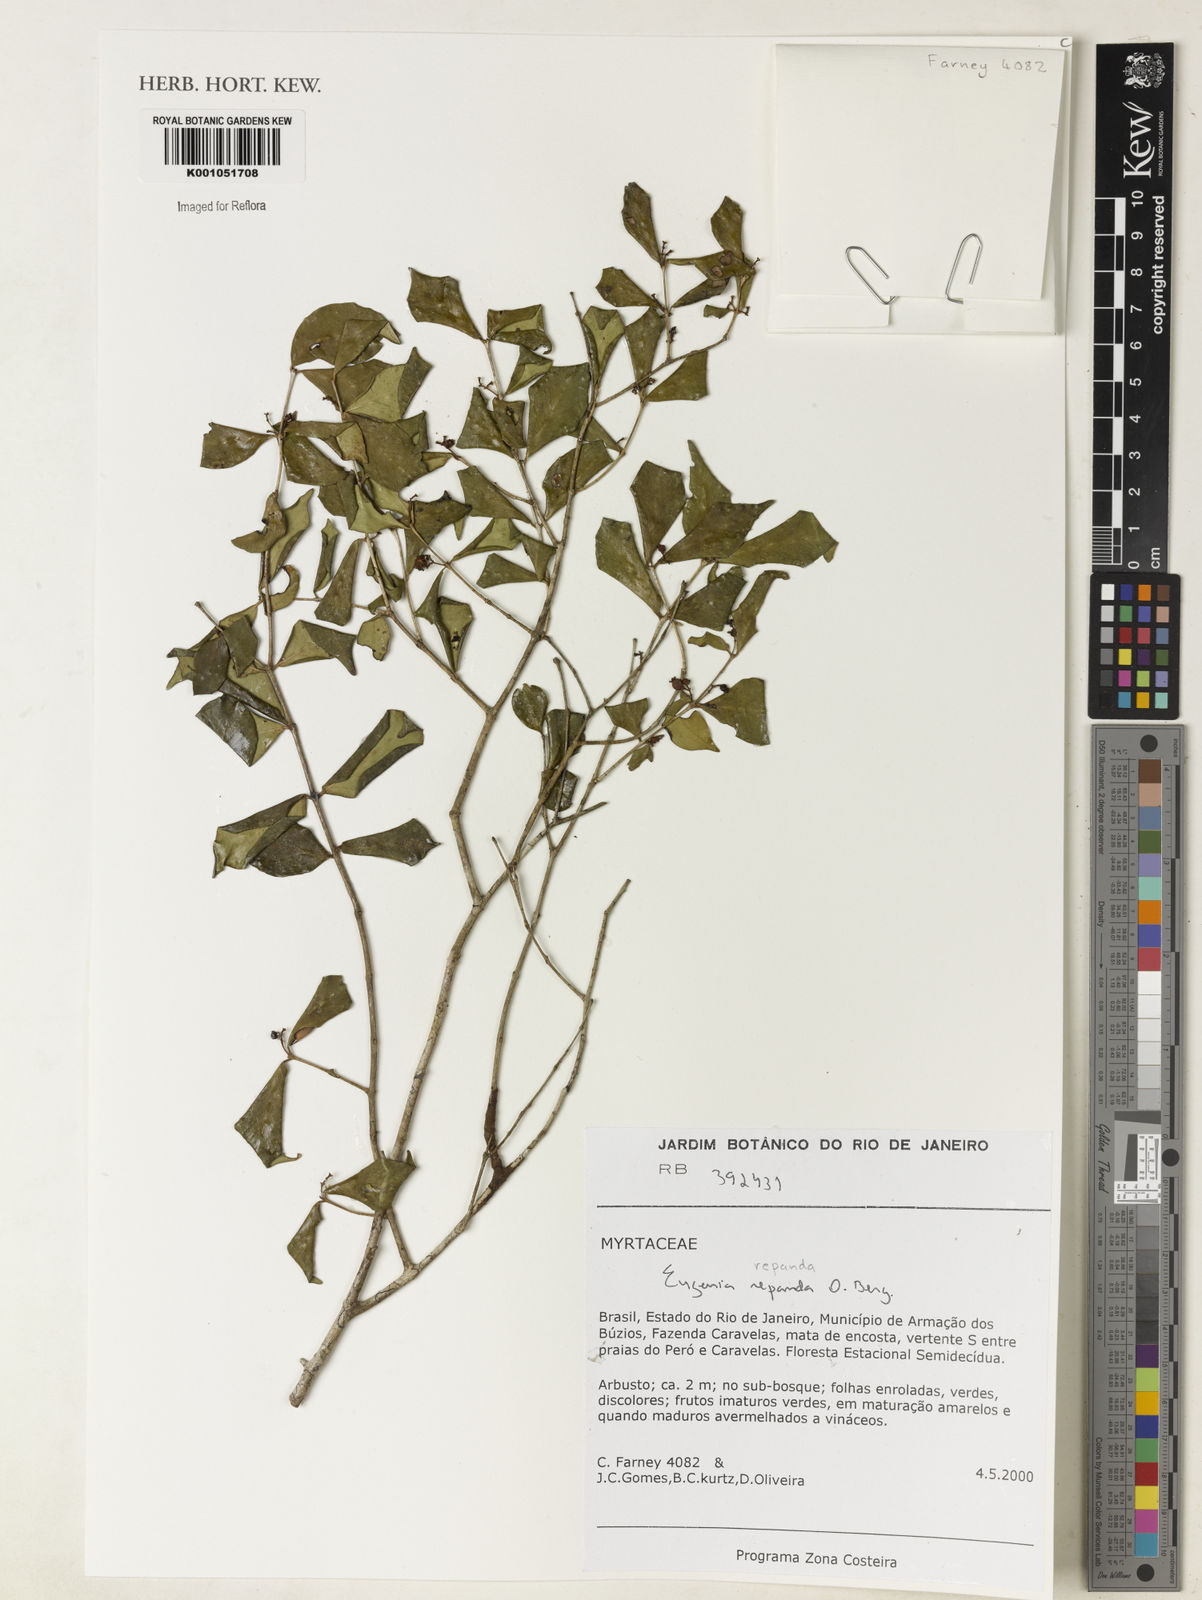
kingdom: Plantae
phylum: Tracheophyta
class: Magnoliopsida
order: Myrtales
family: Myrtaceae
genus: Eugenia
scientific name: Eugenia repanda
